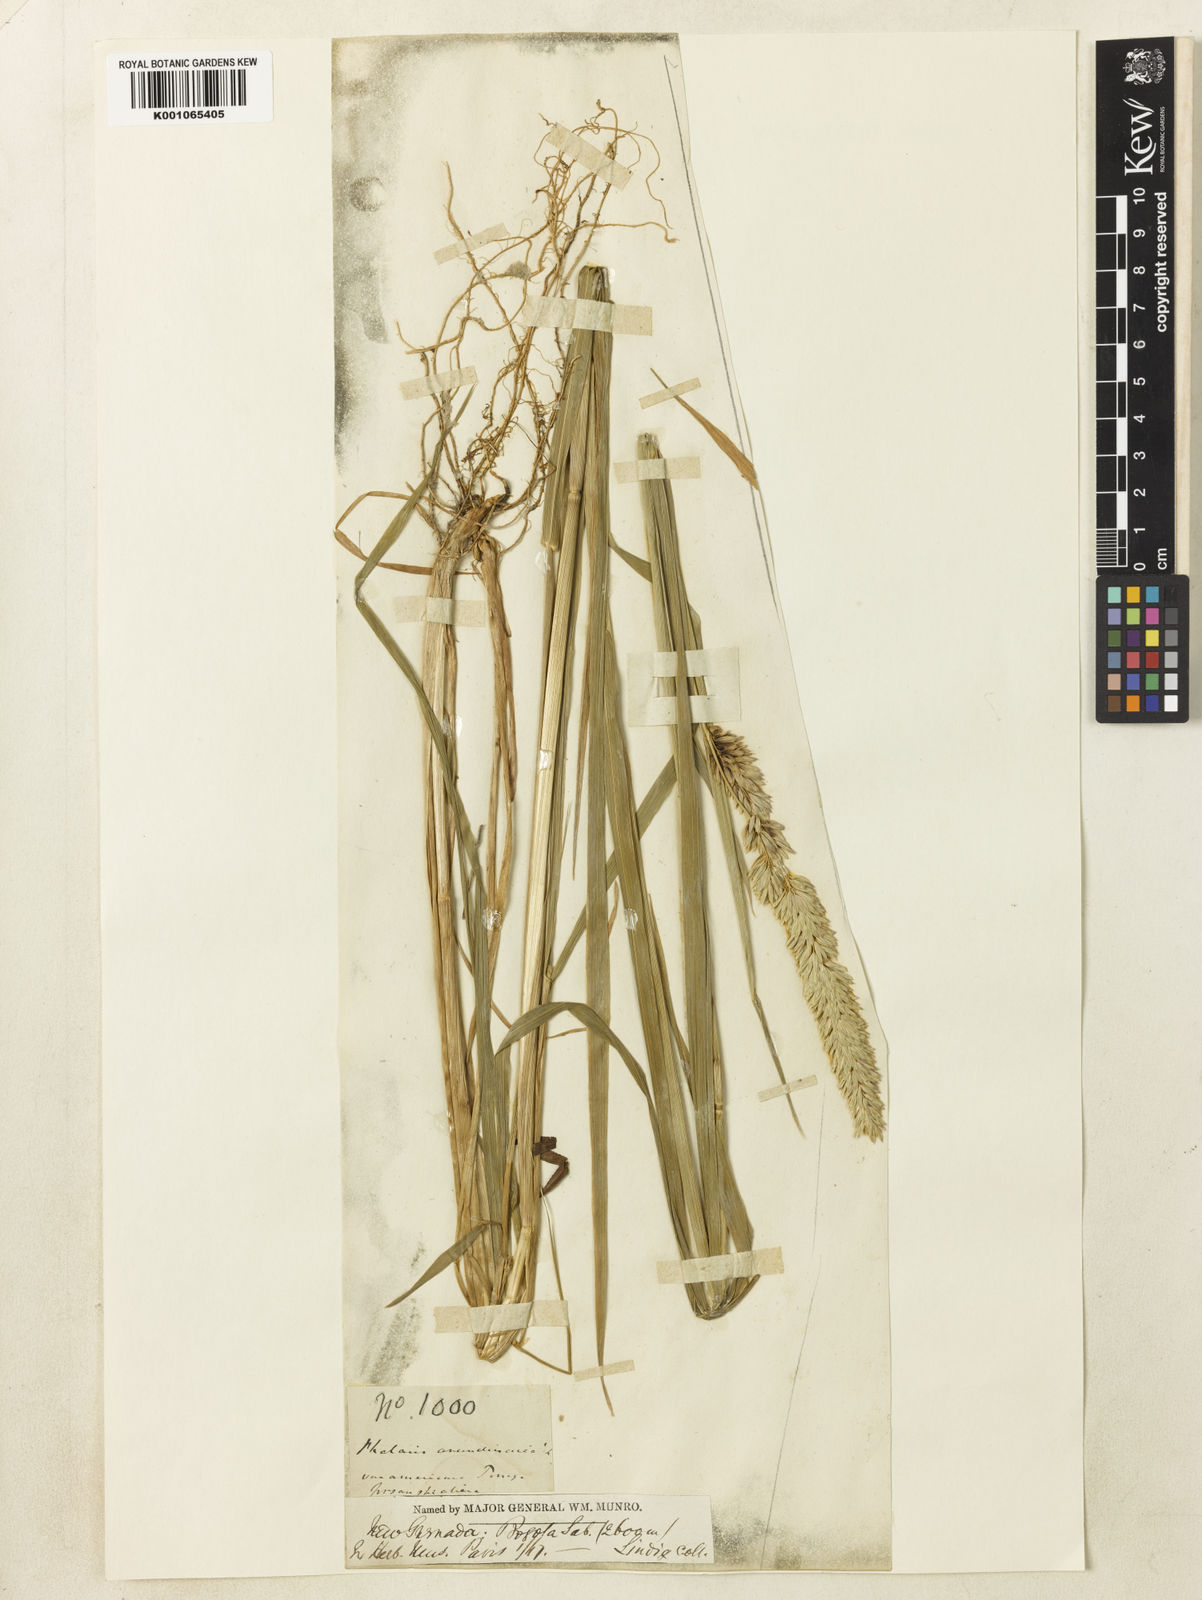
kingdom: Plantae
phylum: Tracheophyta
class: Liliopsida
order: Poales
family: Poaceae
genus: Phalaris
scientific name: Phalaris arundinacea
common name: Reed canary-grass
